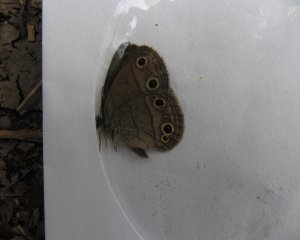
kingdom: Animalia
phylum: Arthropoda
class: Insecta
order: Lepidoptera
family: Nymphalidae
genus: Euptychia
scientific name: Euptychia cymela
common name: Little Wood Satyr
